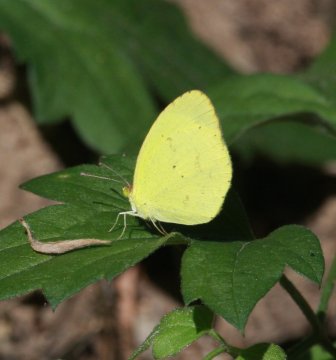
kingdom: Animalia
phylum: Arthropoda
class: Insecta
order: Lepidoptera
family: Pieridae
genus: Pyrisitia
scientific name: Pyrisitia nise
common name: Mimosa Yellow
